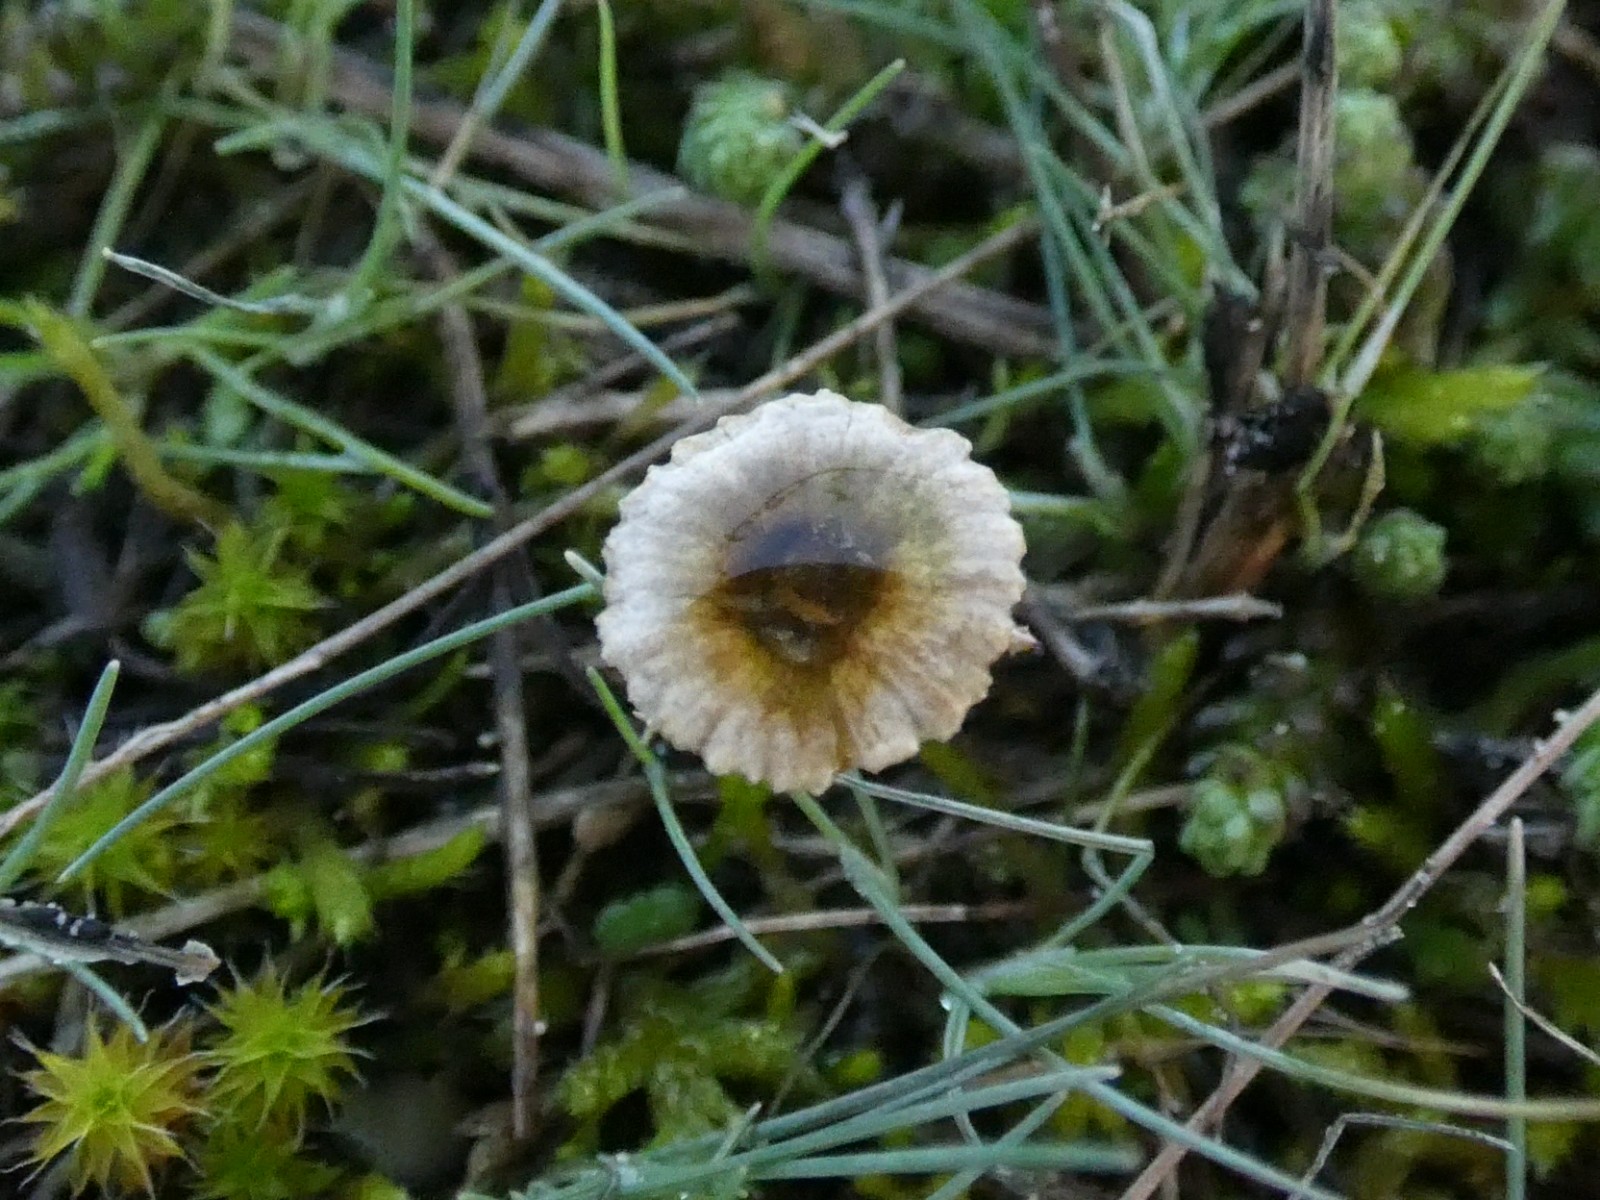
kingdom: Fungi
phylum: Basidiomycota
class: Agaricomycetes
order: Agaricales
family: Marasmiaceae
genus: Crinipellis
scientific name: Crinipellis scabella
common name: børstefod
